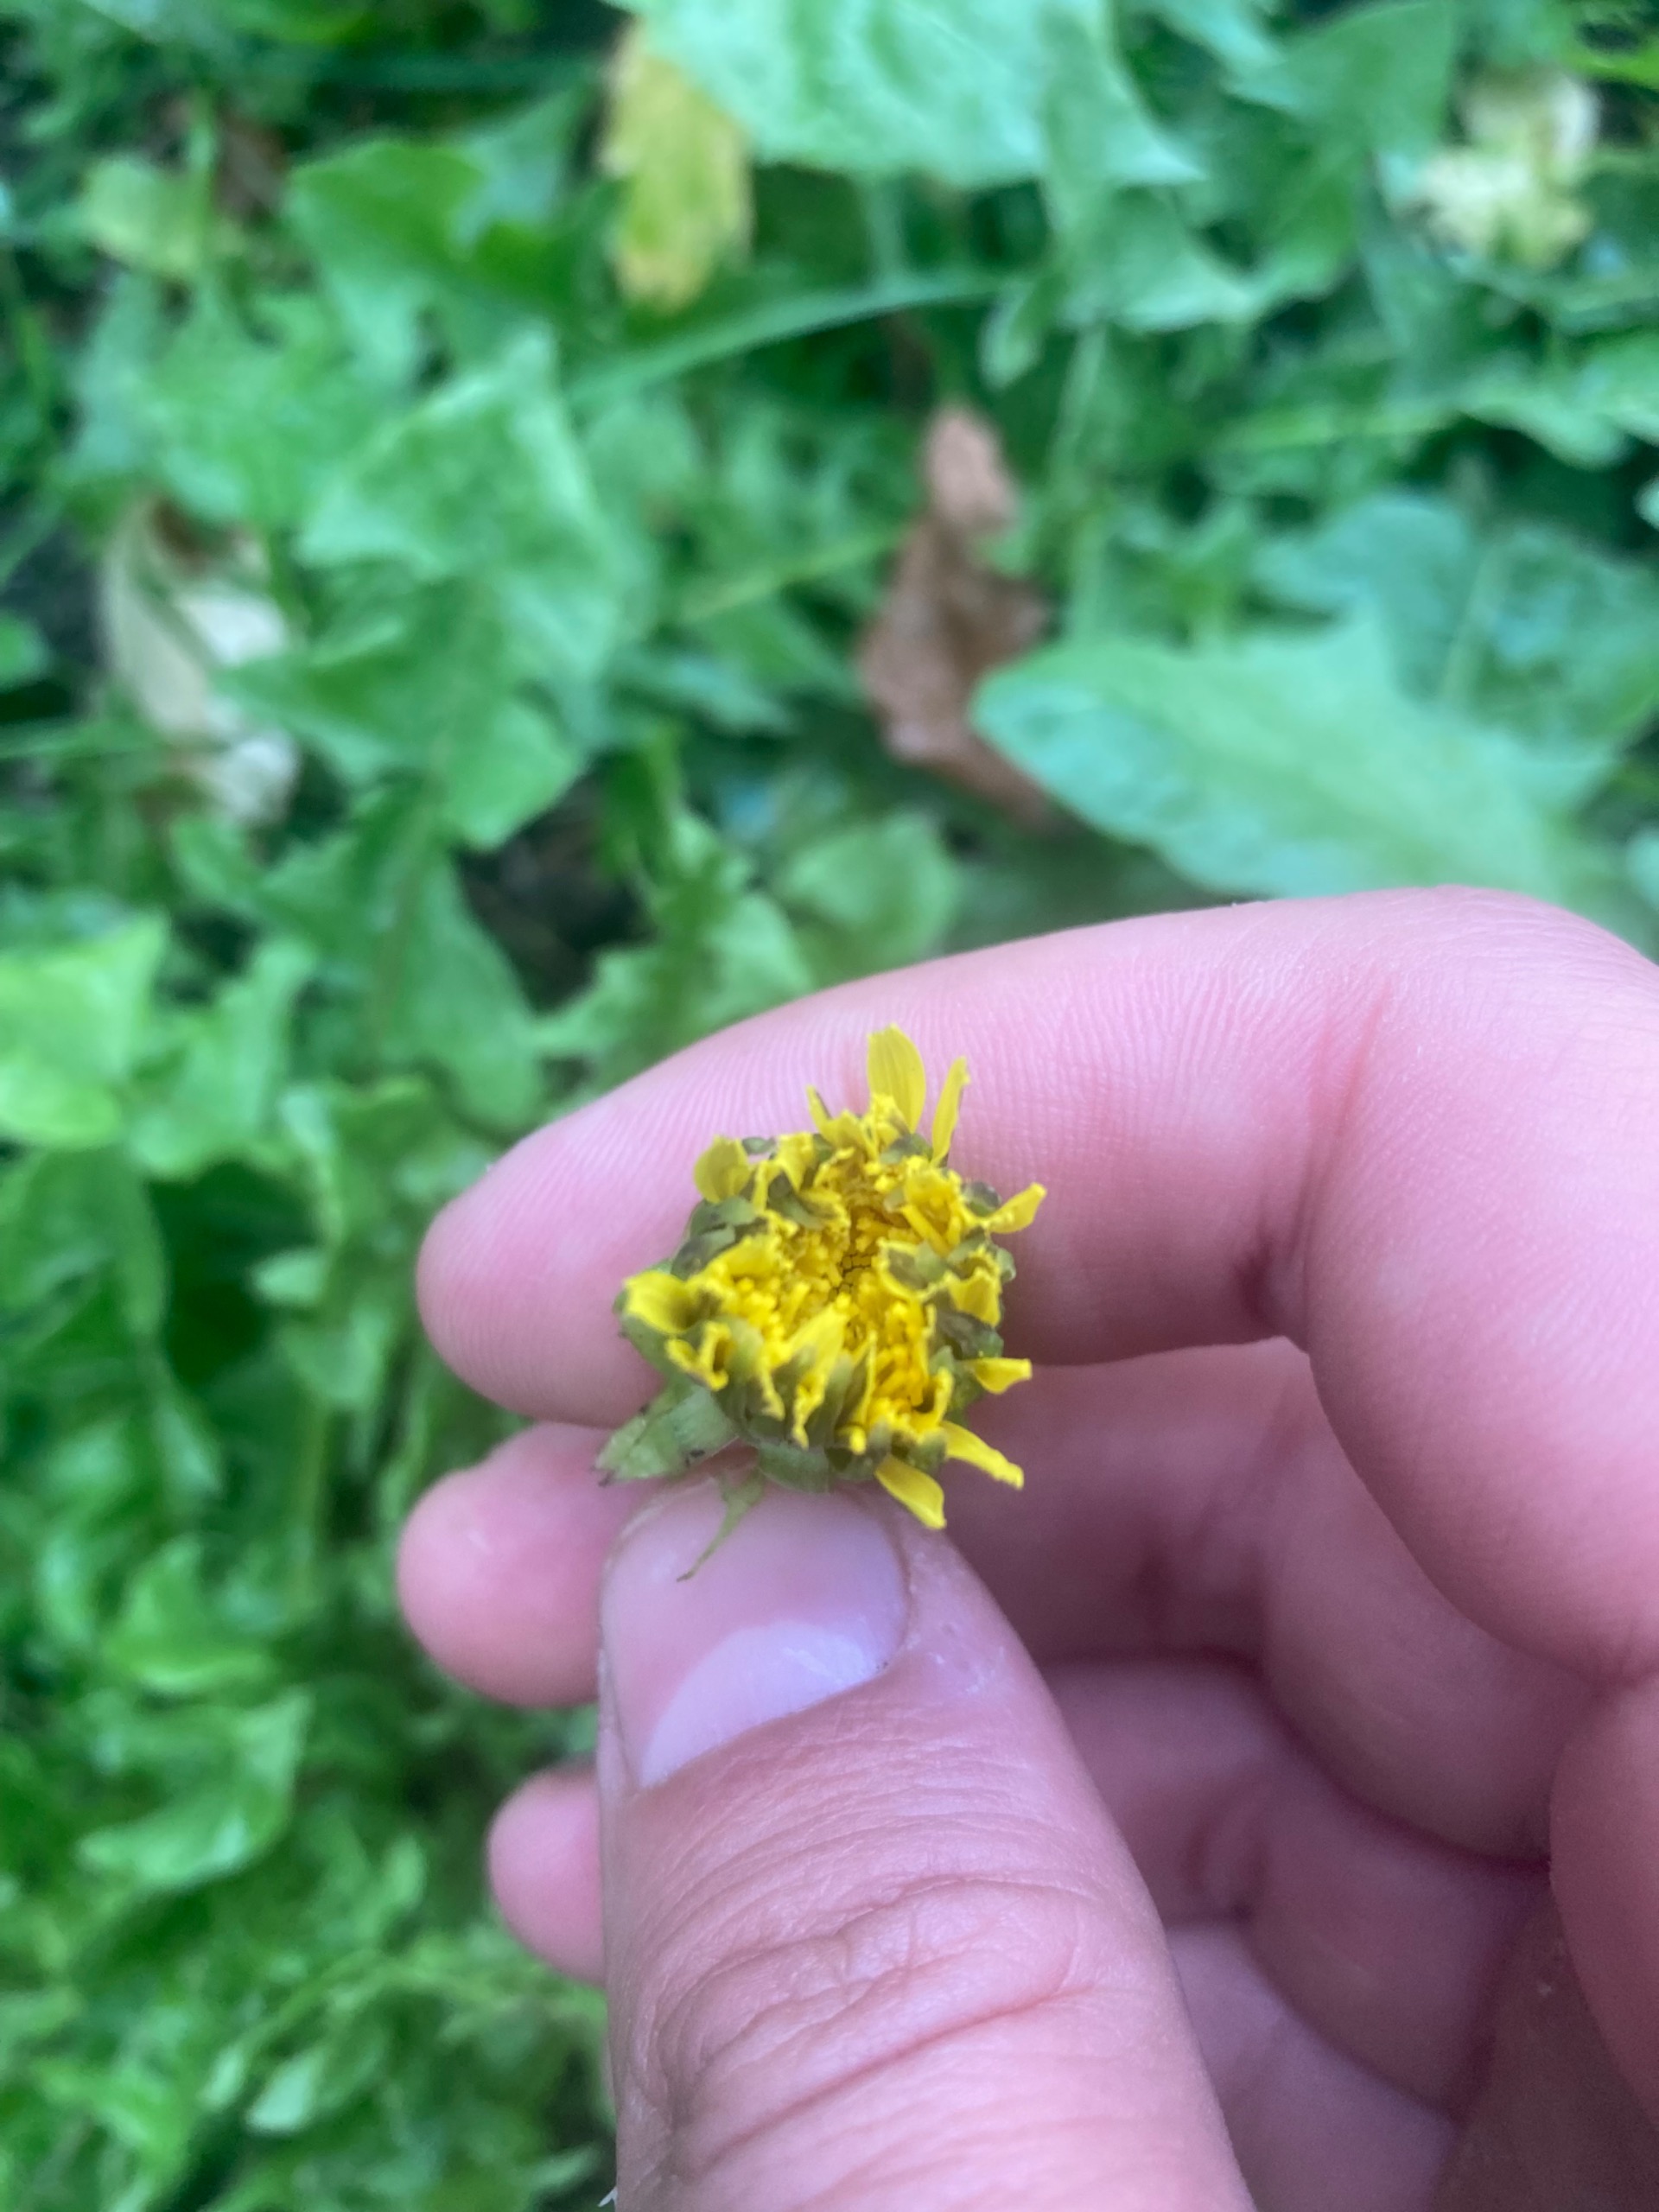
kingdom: Plantae
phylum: Tracheophyta
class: Magnoliopsida
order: Asterales
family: Asteraceae
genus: Taraxacum
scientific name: Taraxacum
